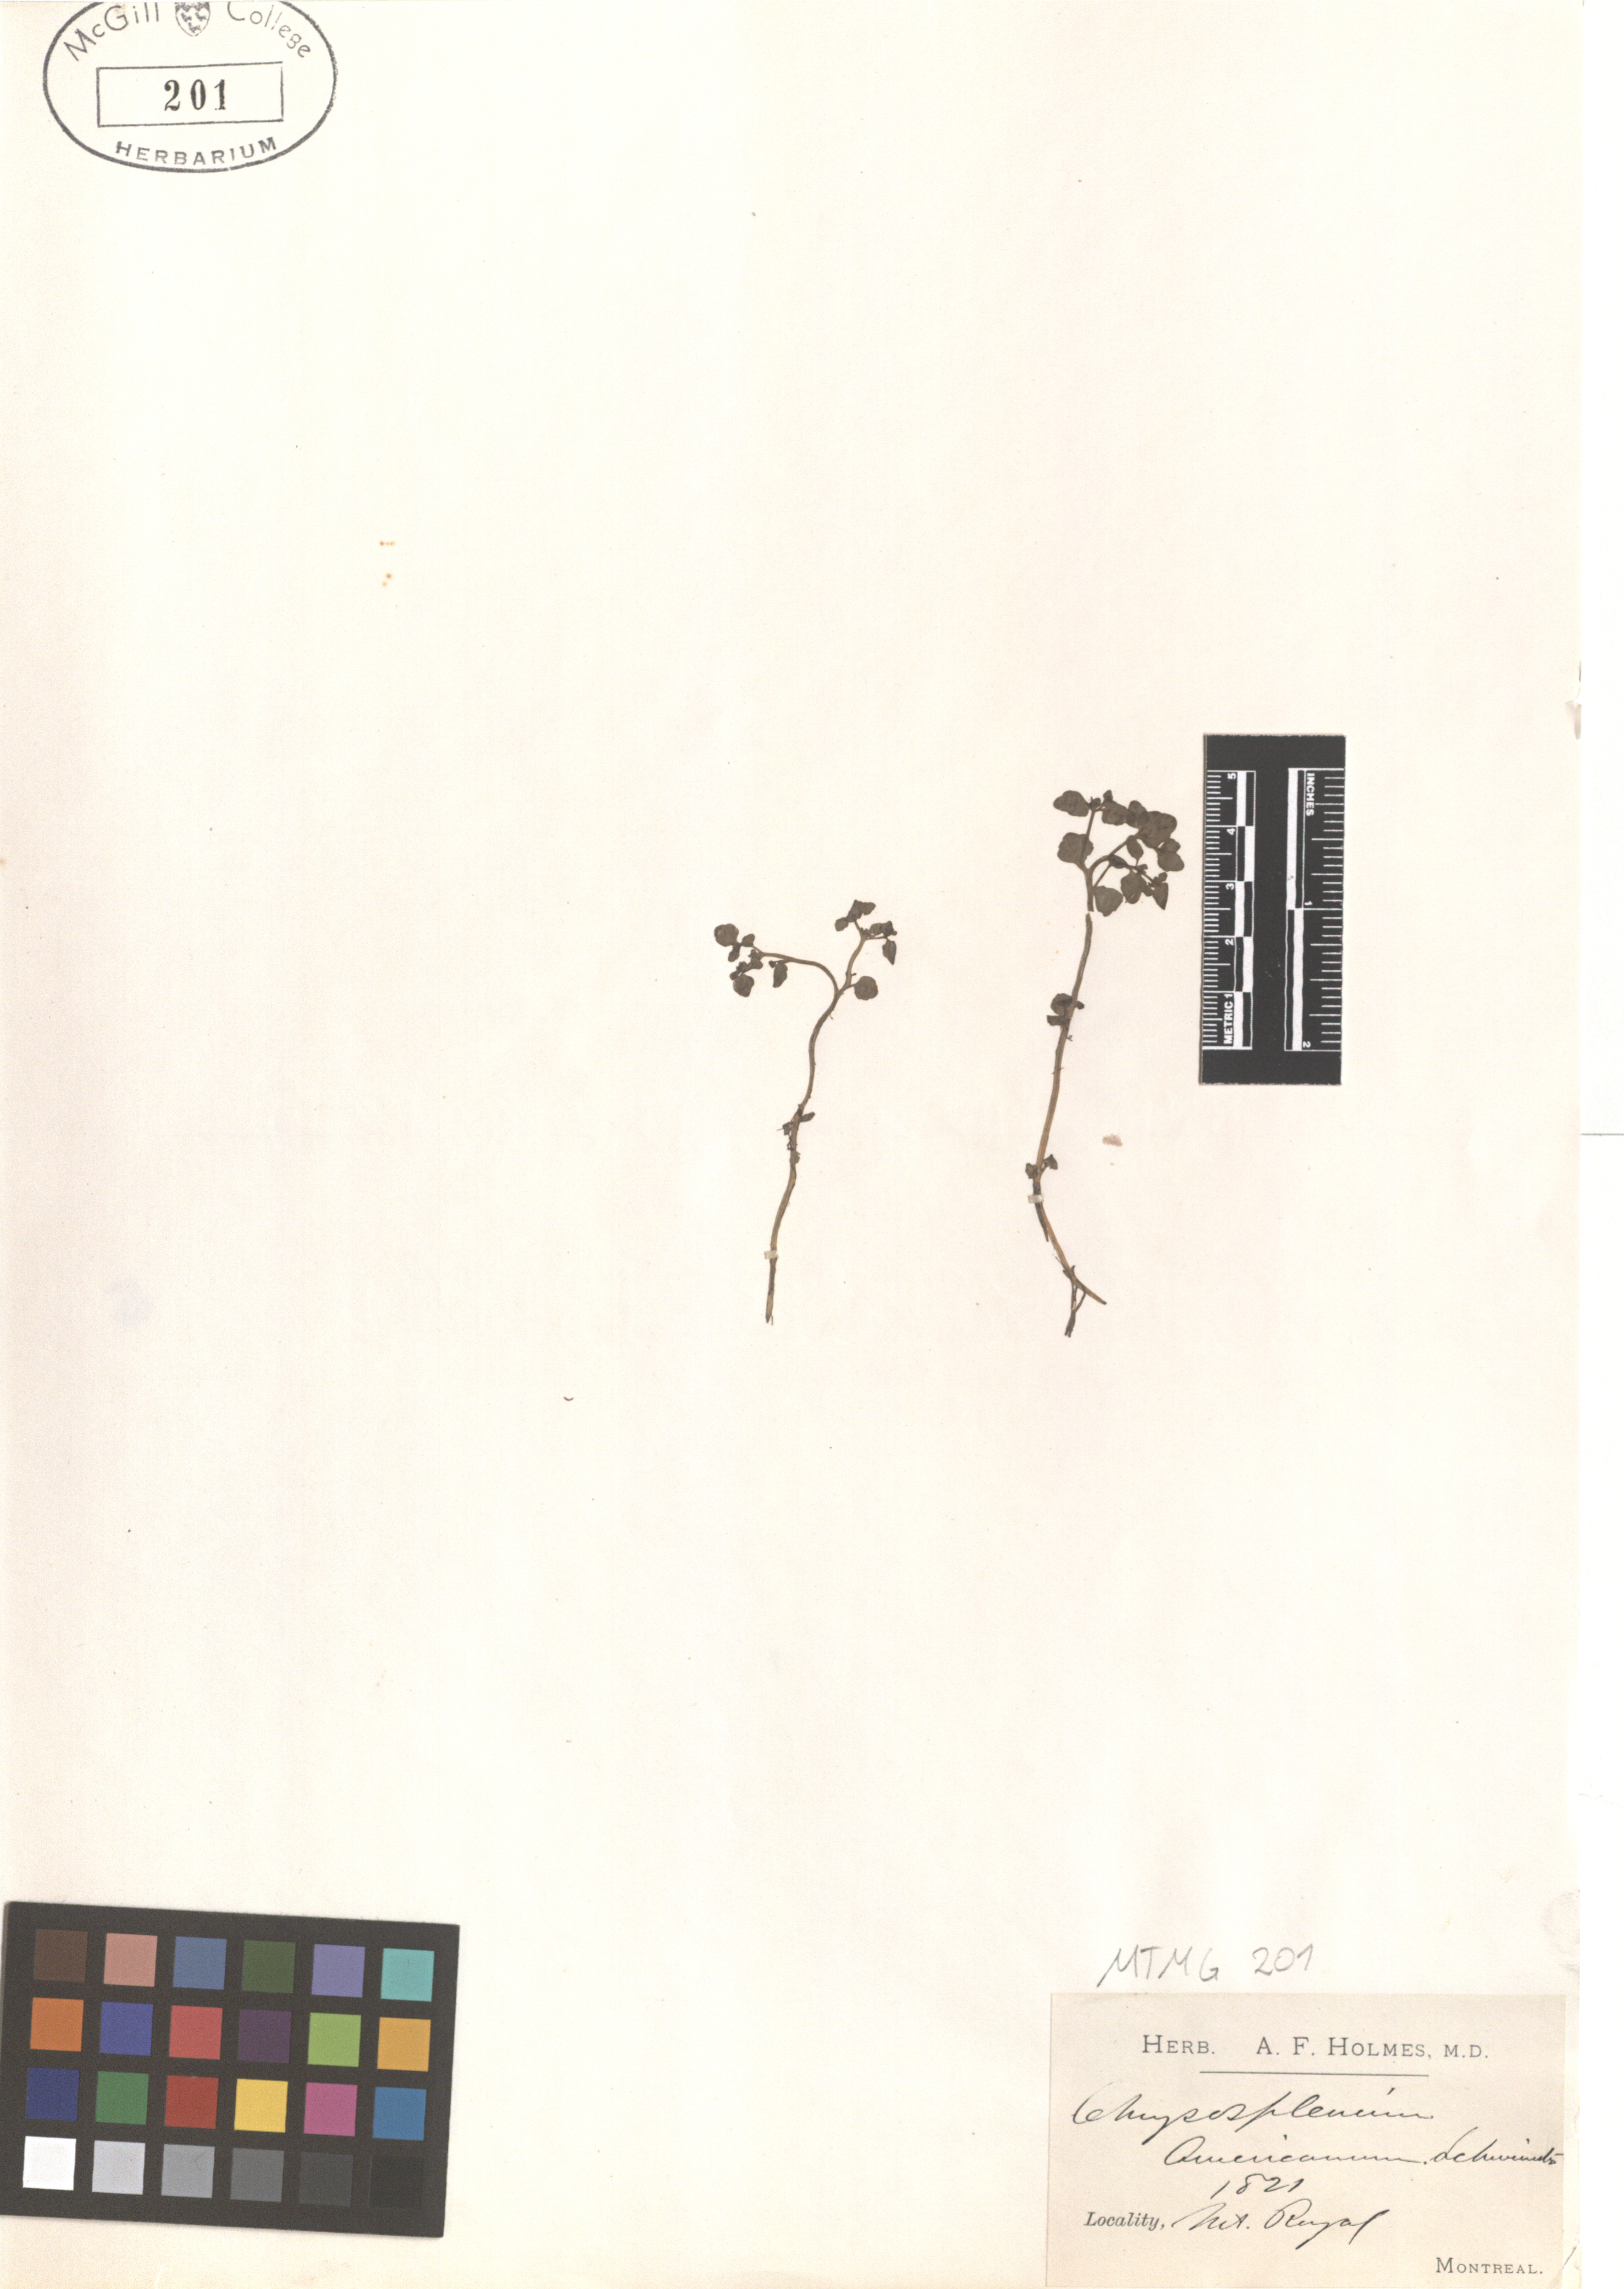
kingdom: Plantae
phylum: Tracheophyta
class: Magnoliopsida
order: Saxifragales
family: Saxifragaceae
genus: Chrysosplenium
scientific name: Chrysosplenium americanum
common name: American golden-saxifrage
